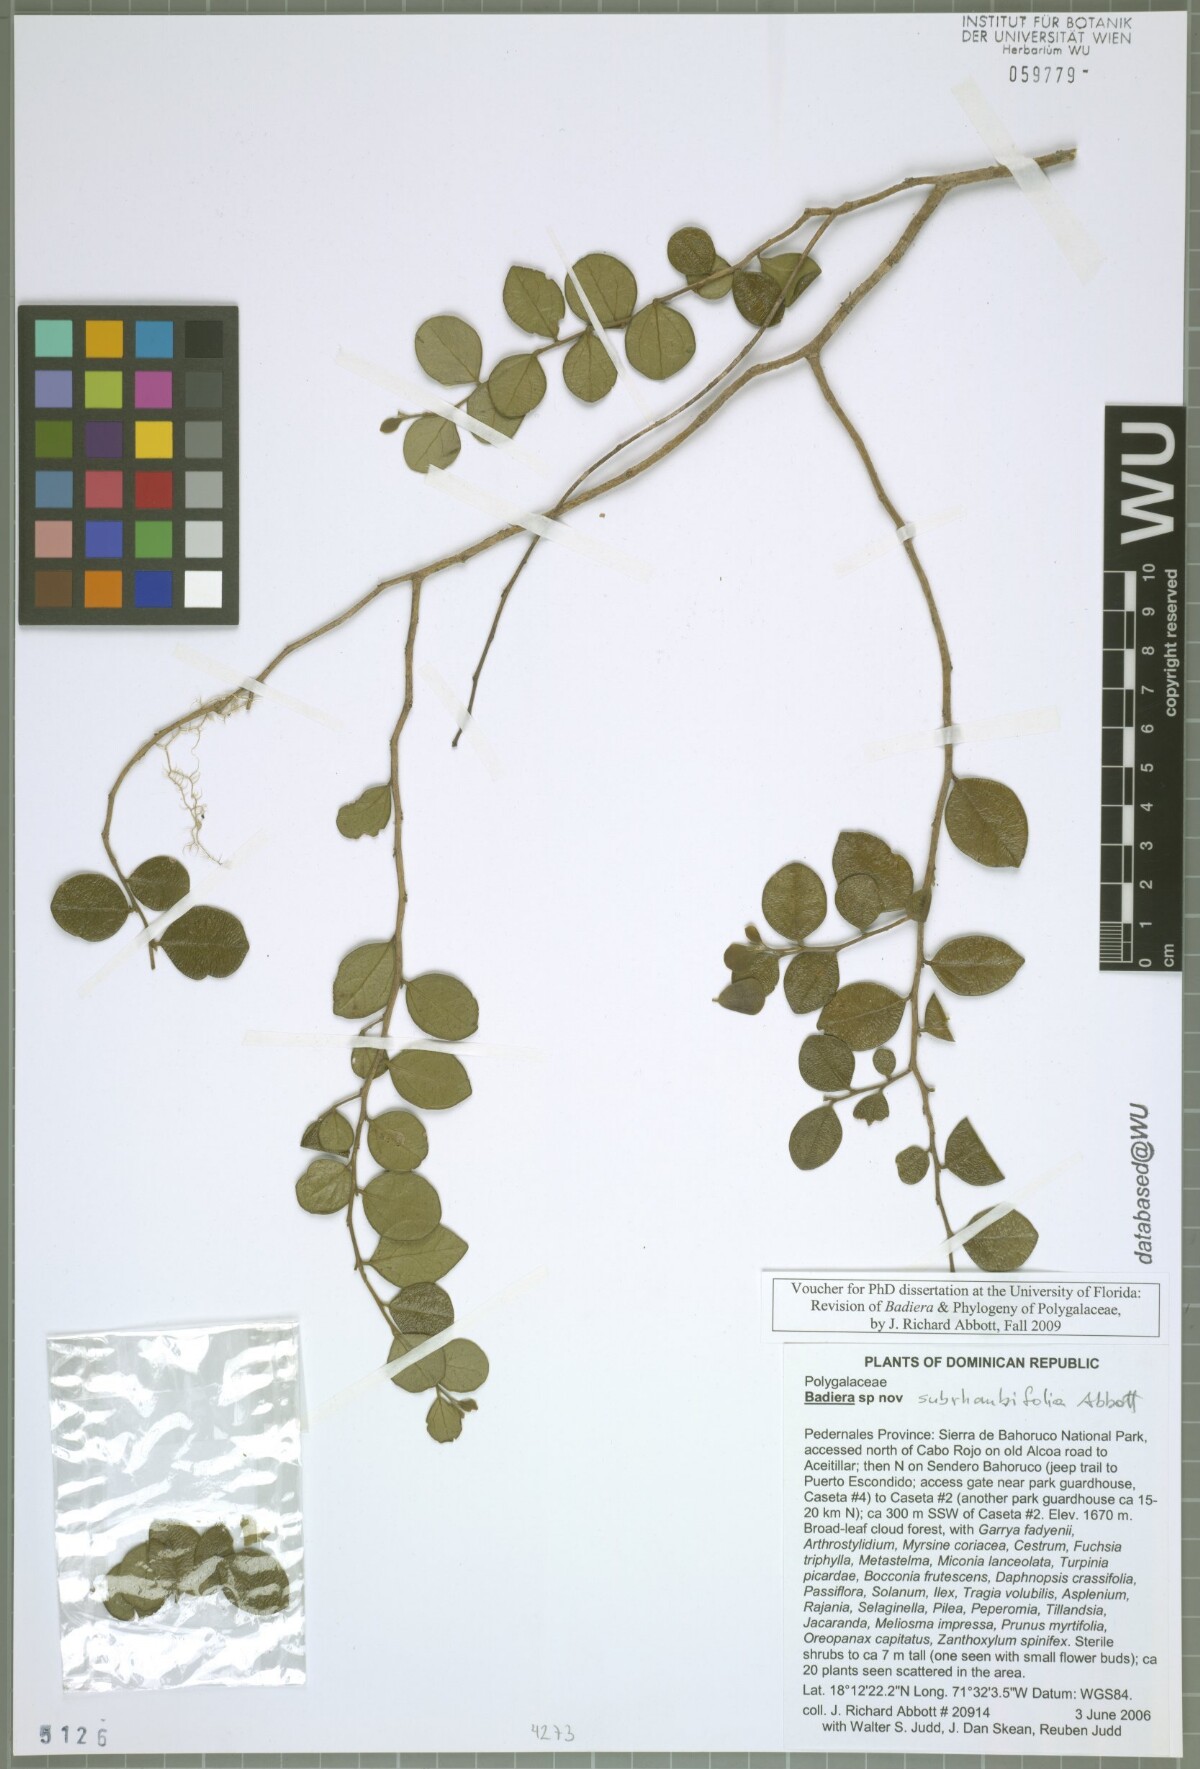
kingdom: Plantae
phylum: Tracheophyta
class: Magnoliopsida
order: Fabales
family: Polygalaceae
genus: Badiera
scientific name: Badiera
